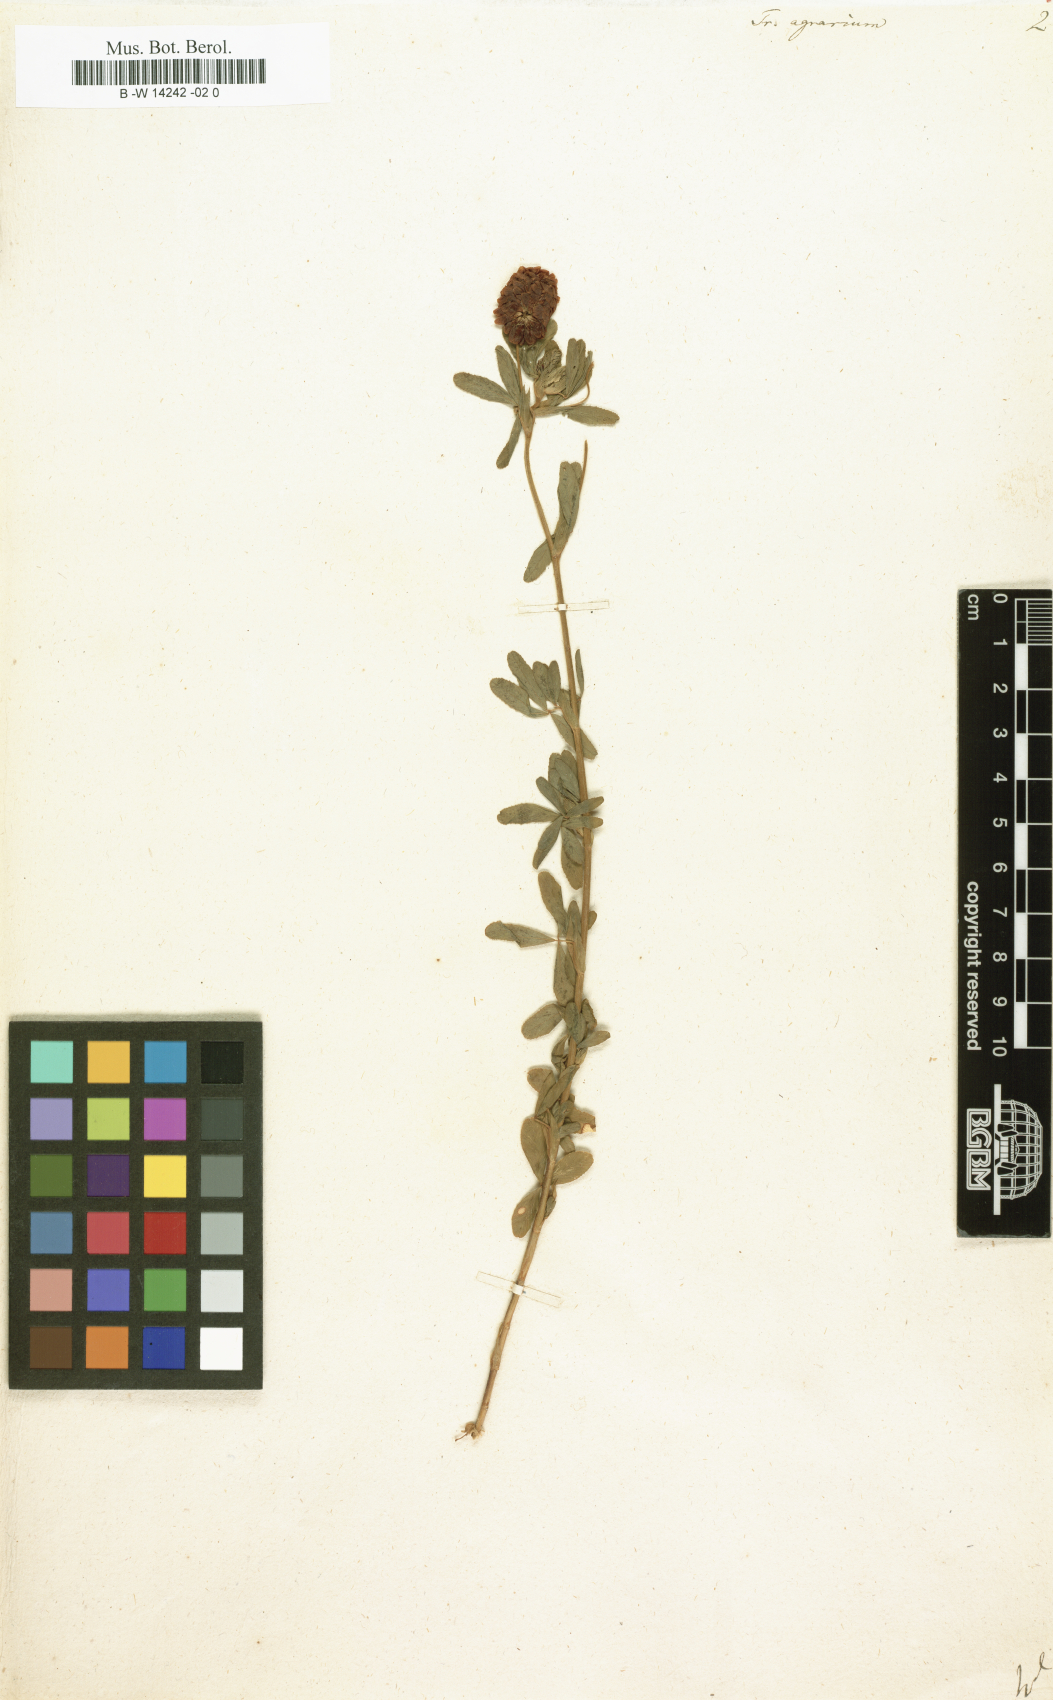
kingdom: Plantae
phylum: Tracheophyta
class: Magnoliopsida
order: Fabales
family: Fabaceae
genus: Trifolium
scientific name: Trifolium aureum
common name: Golden clover
